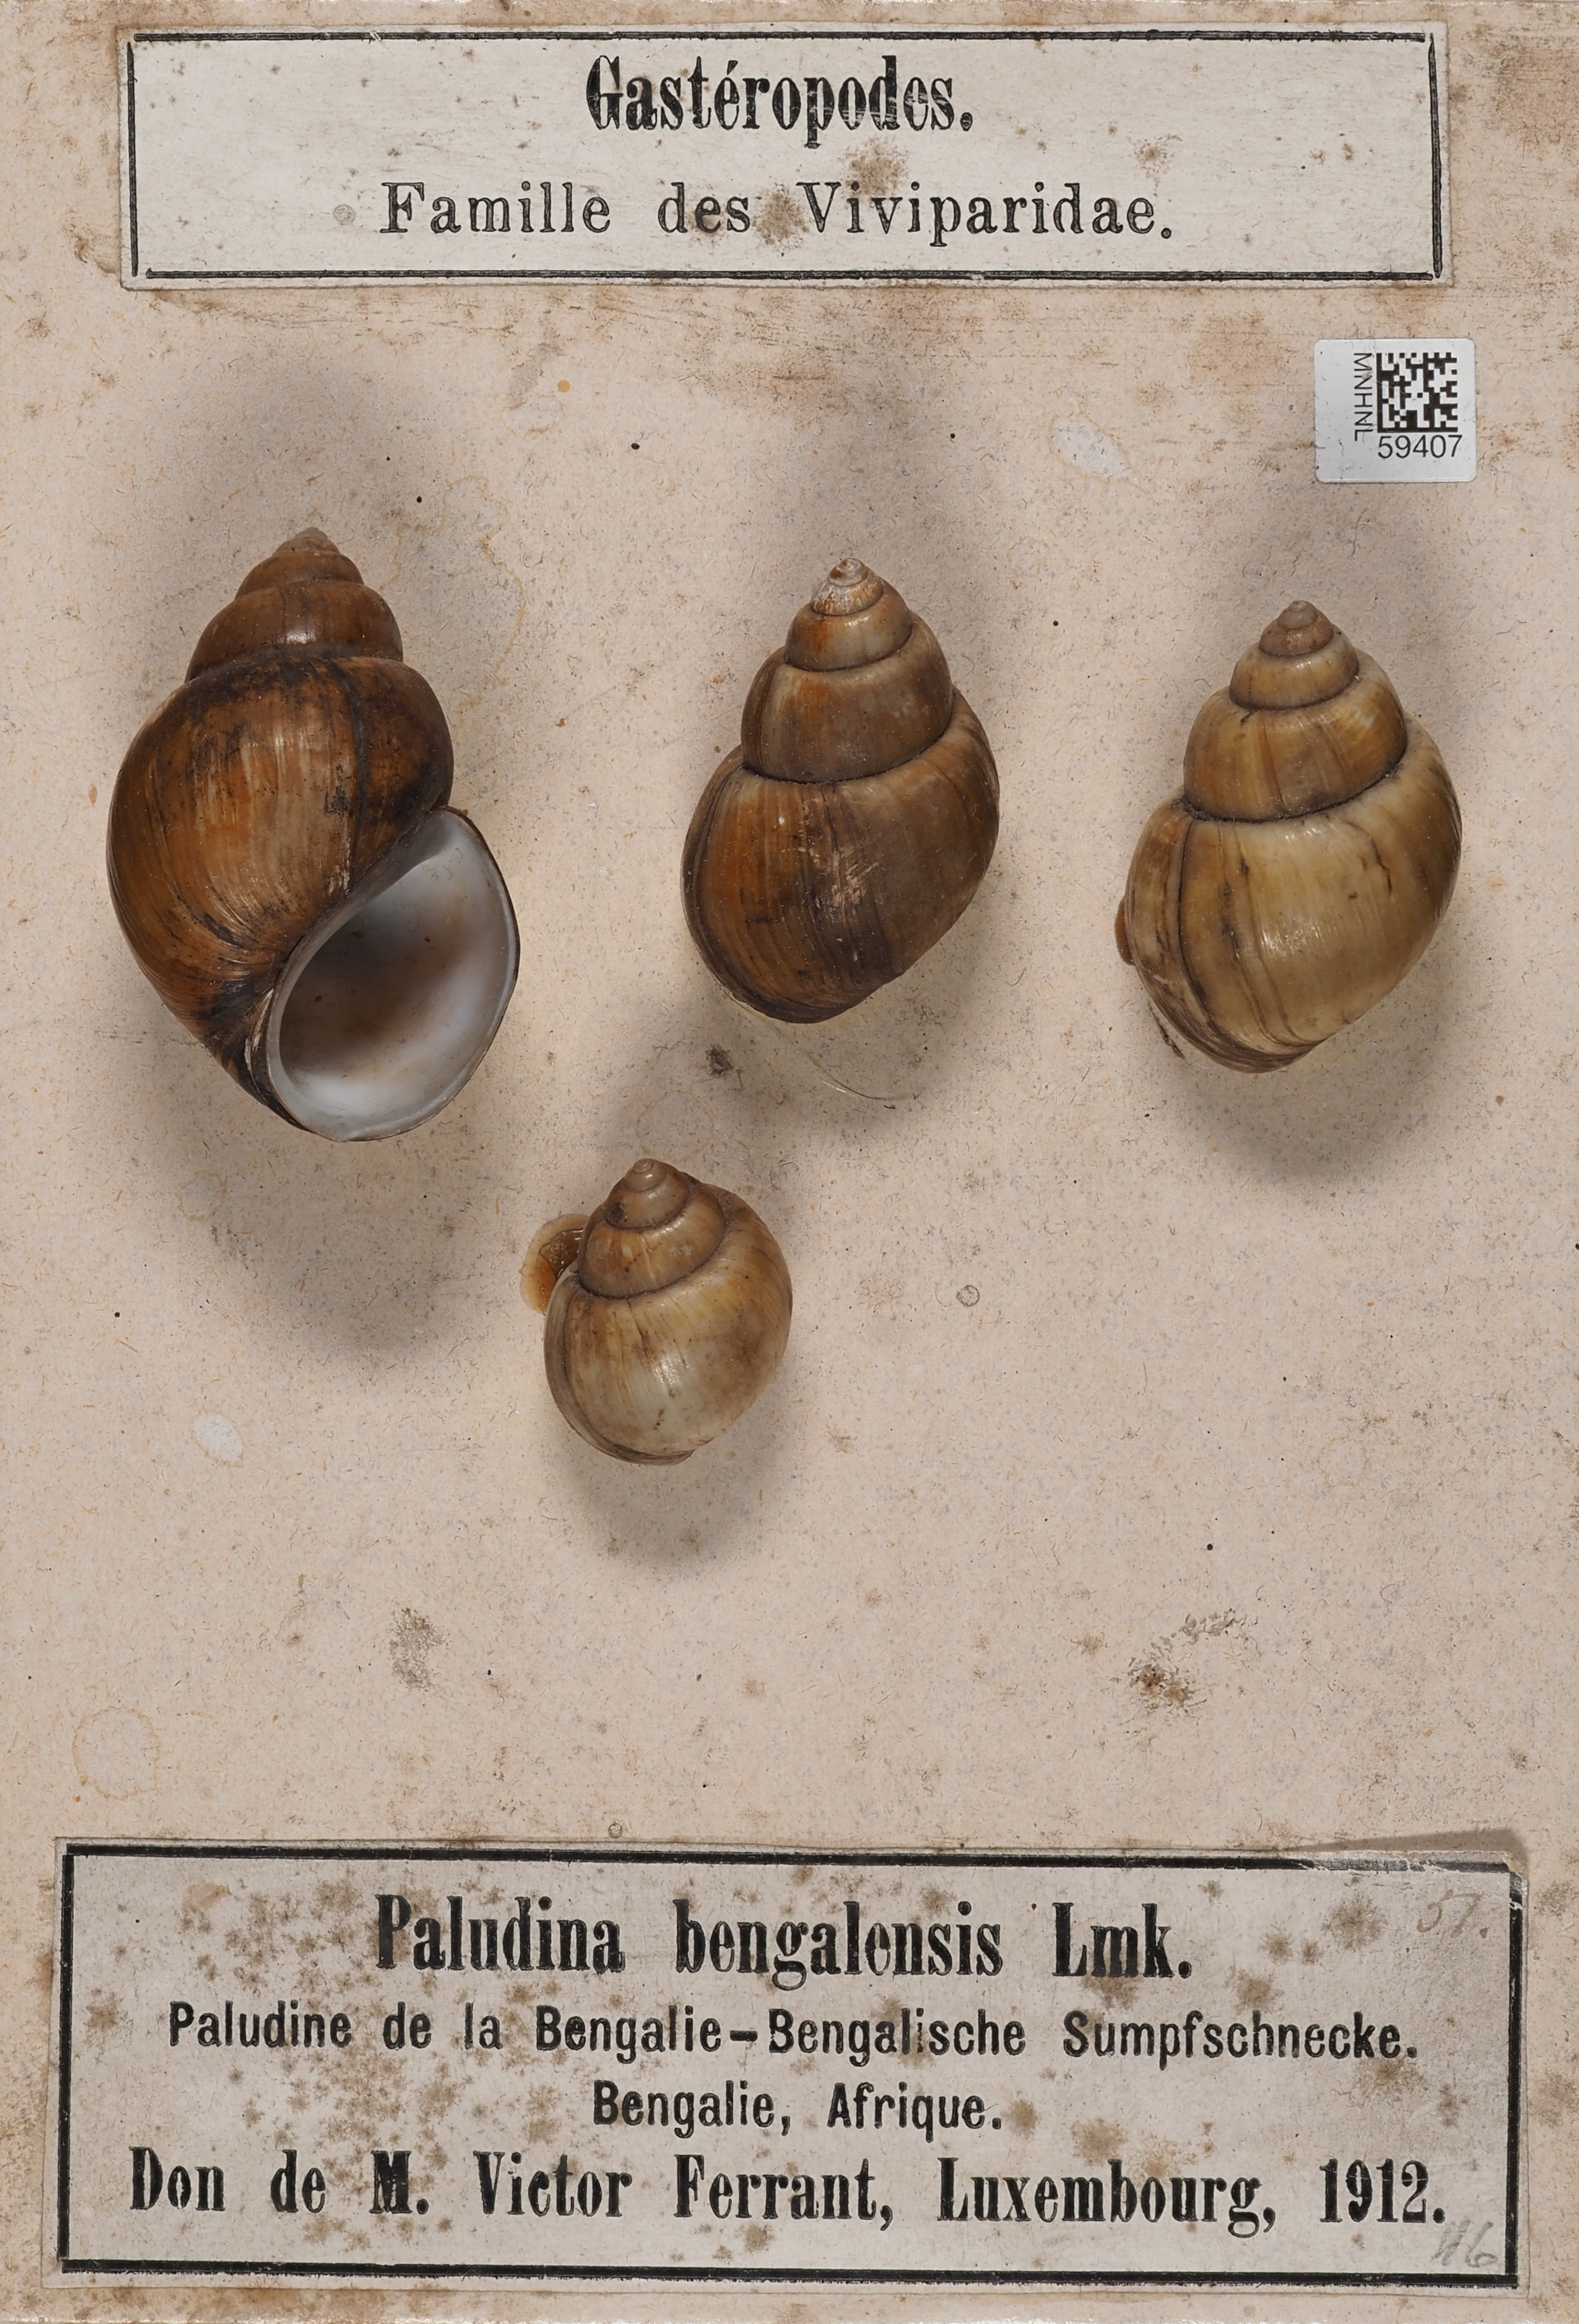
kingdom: Animalia
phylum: Mollusca
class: Gastropoda
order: Architaenioglossa
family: Viviparidae
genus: Filopaludina
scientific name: Filopaludina bengalensis
